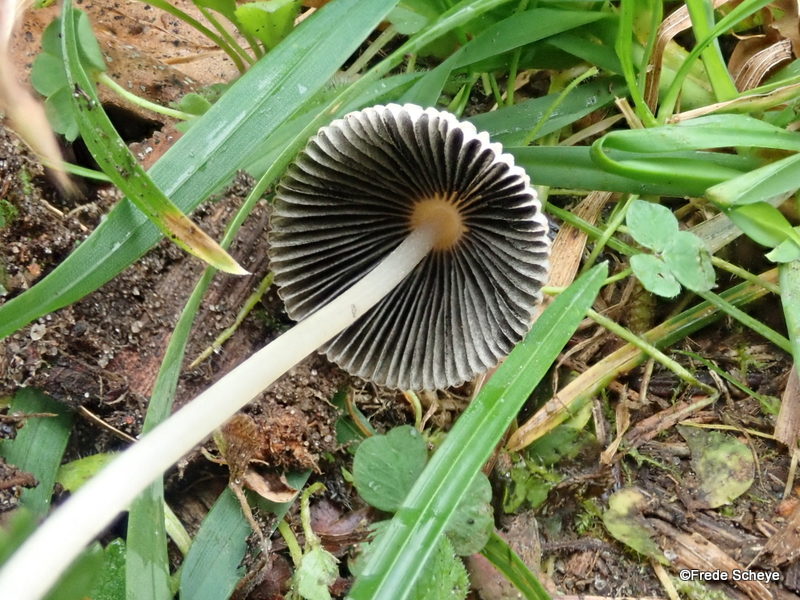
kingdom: Fungi
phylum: Basidiomycota
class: Agaricomycetes
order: Agaricales
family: Psathyrellaceae
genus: Parasola
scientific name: Parasola plicatilis
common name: plæne-hjulhat
